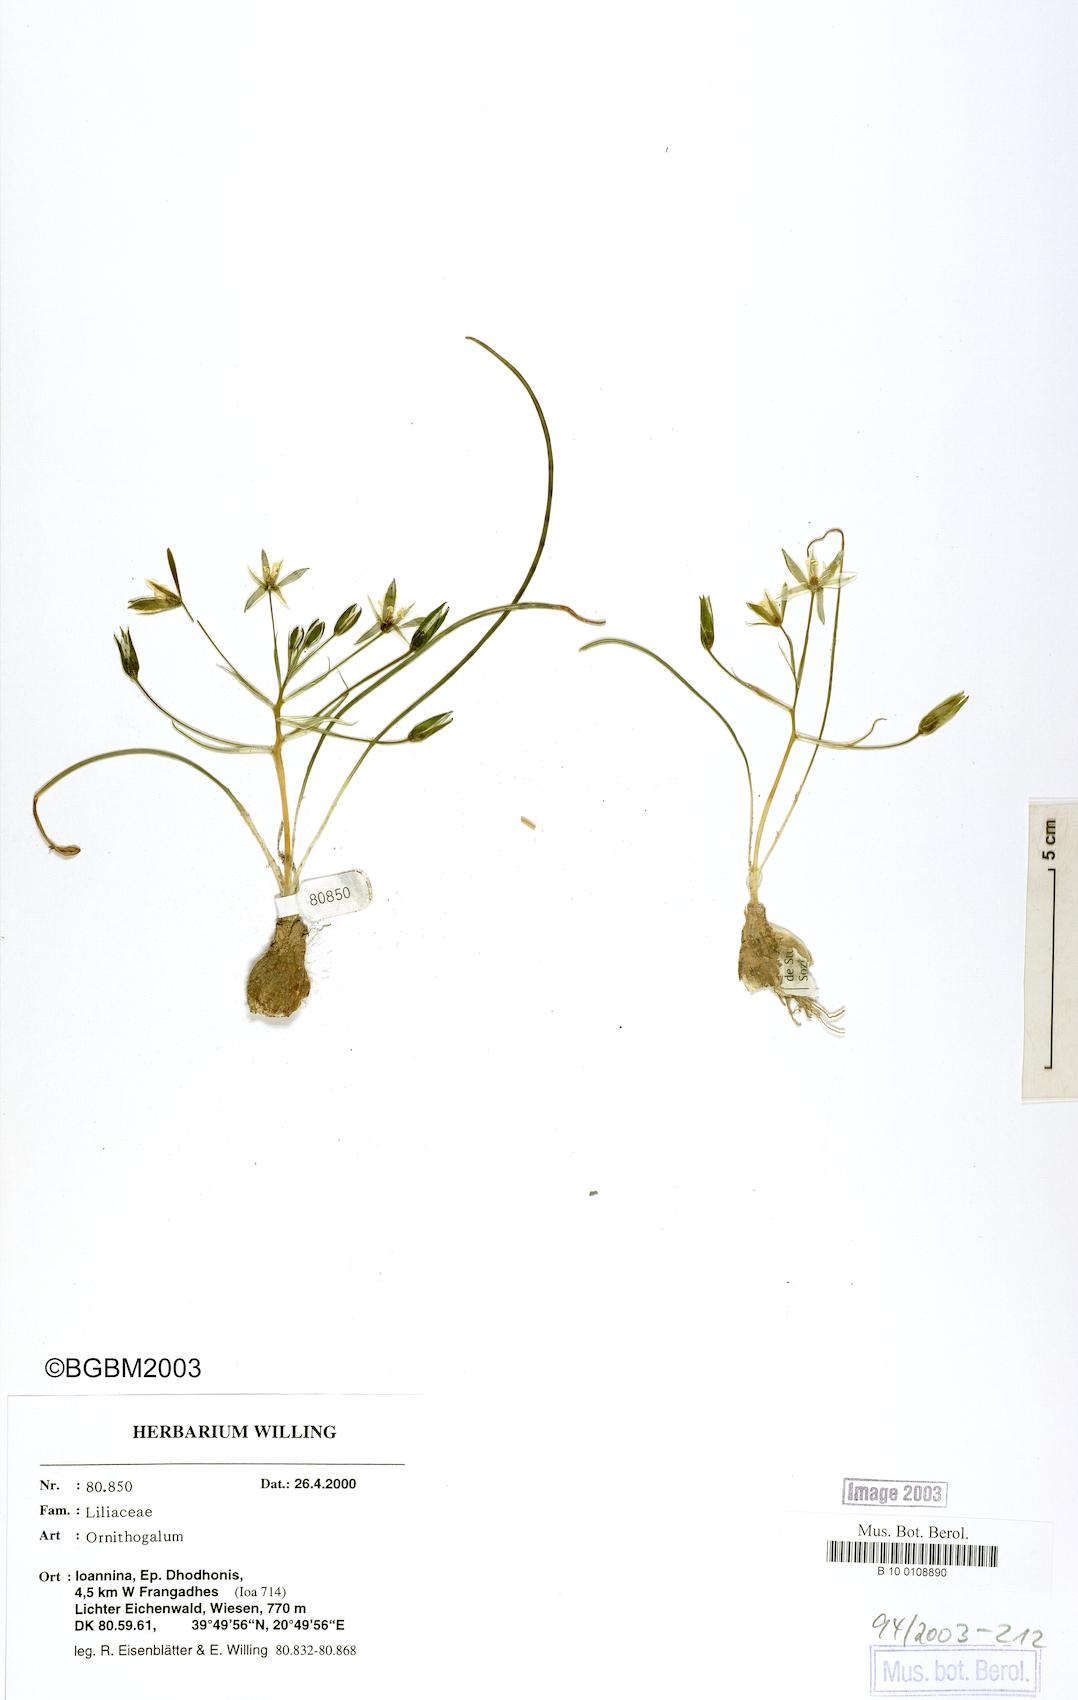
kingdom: Plantae
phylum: Tracheophyta
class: Liliopsida
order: Asparagales
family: Asparagaceae
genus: Ornithogalum
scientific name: Ornithogalum
